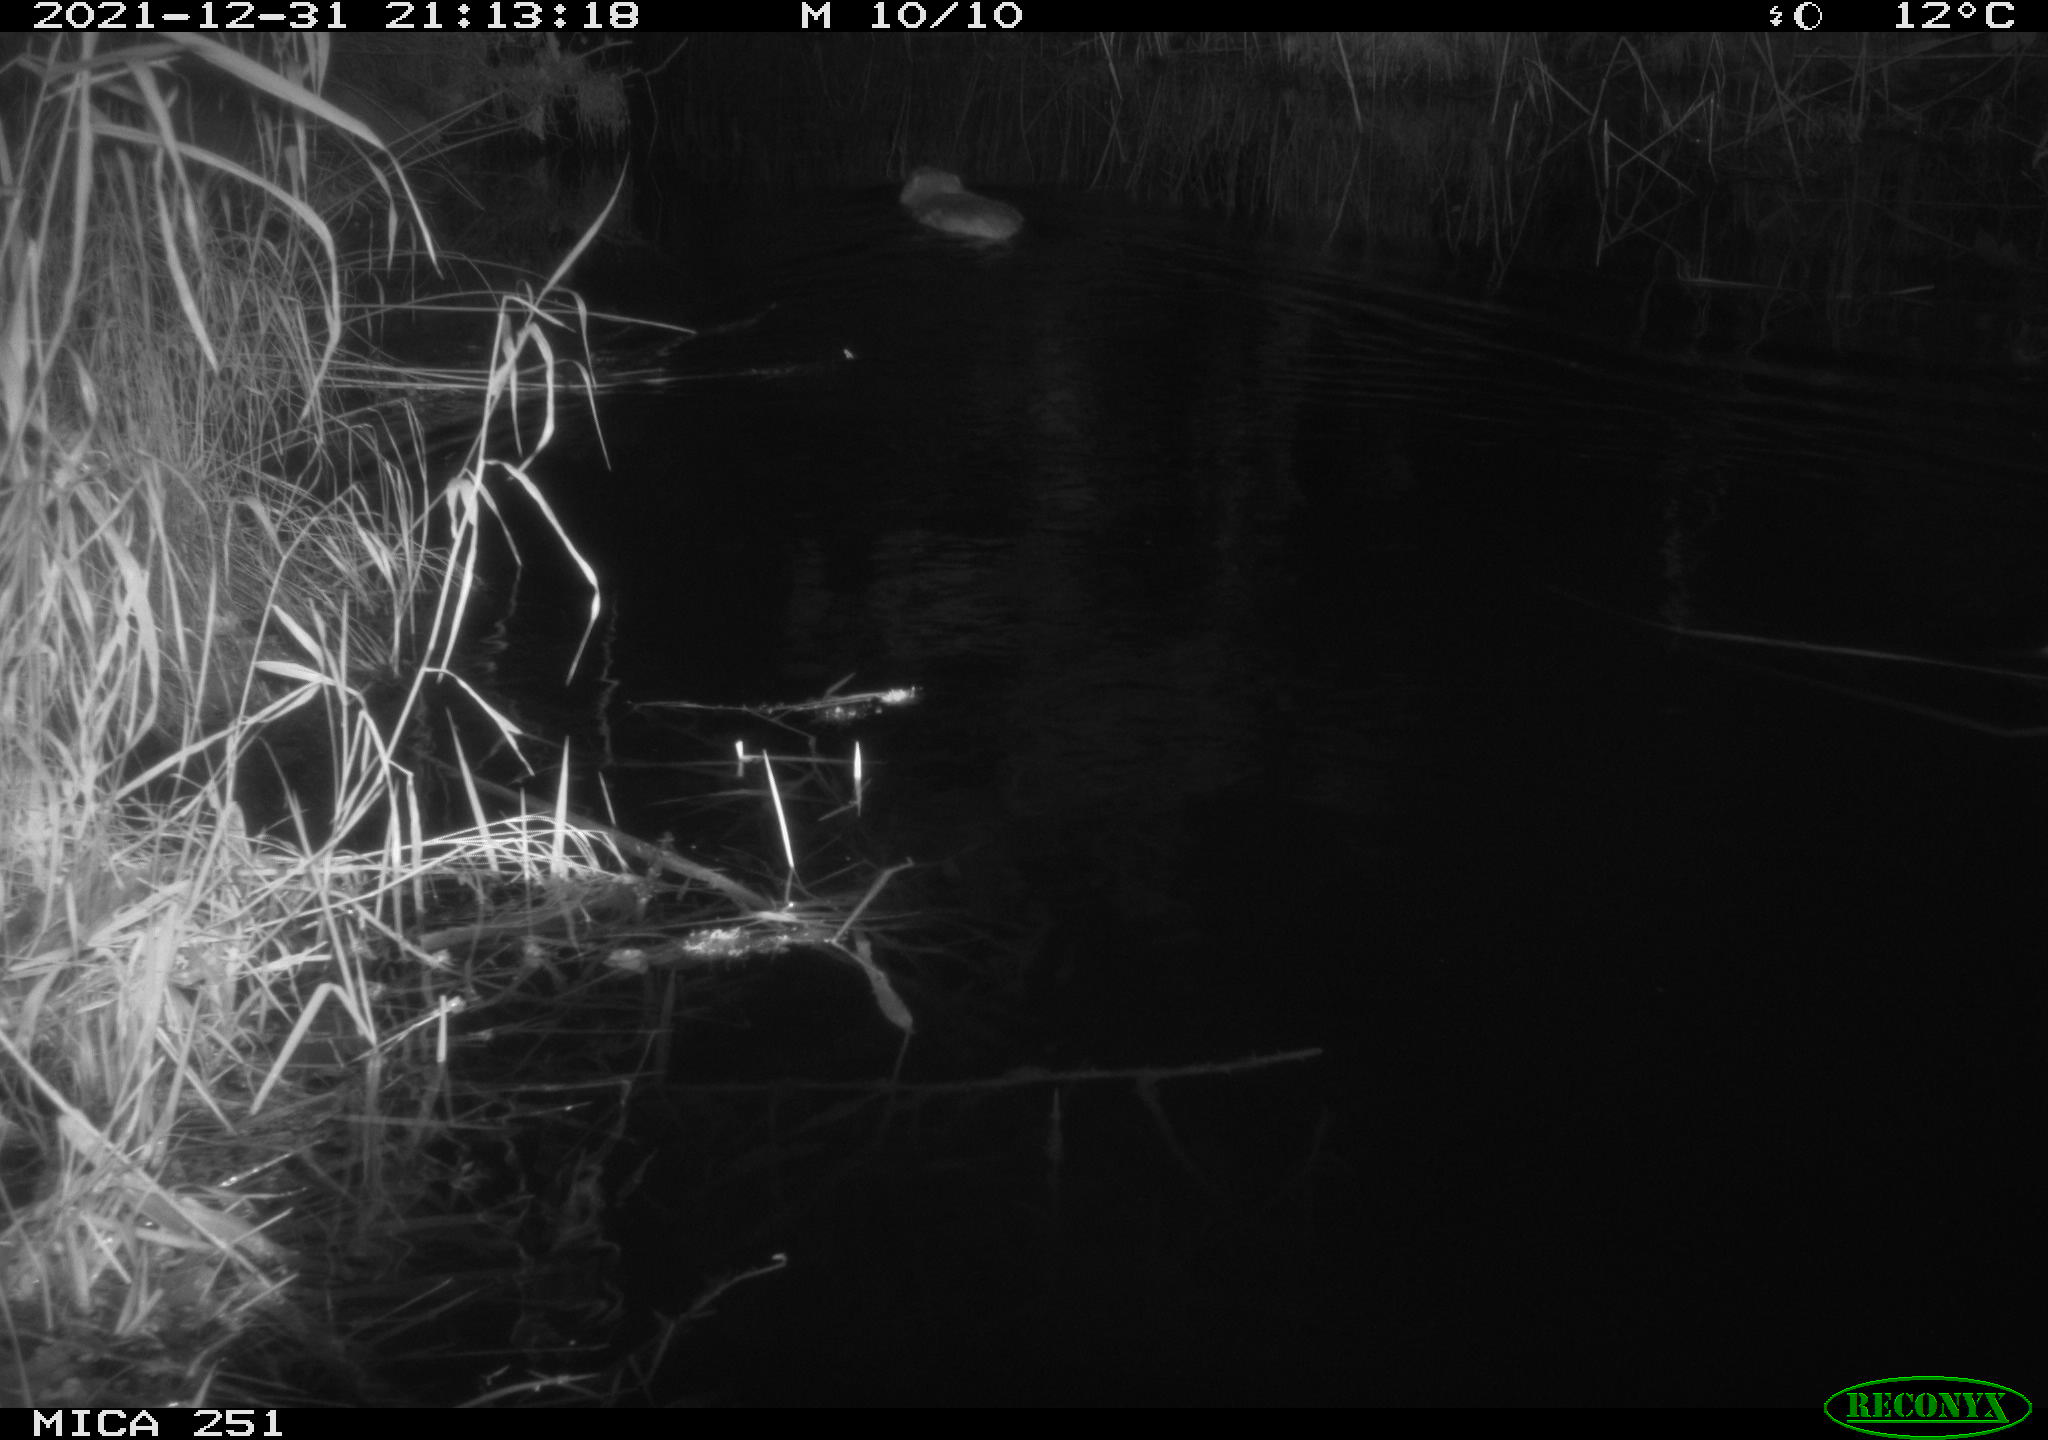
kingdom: Animalia
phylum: Chordata
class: Mammalia
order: Rodentia
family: Myocastoridae
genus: Myocastor
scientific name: Myocastor coypus
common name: Coypu
